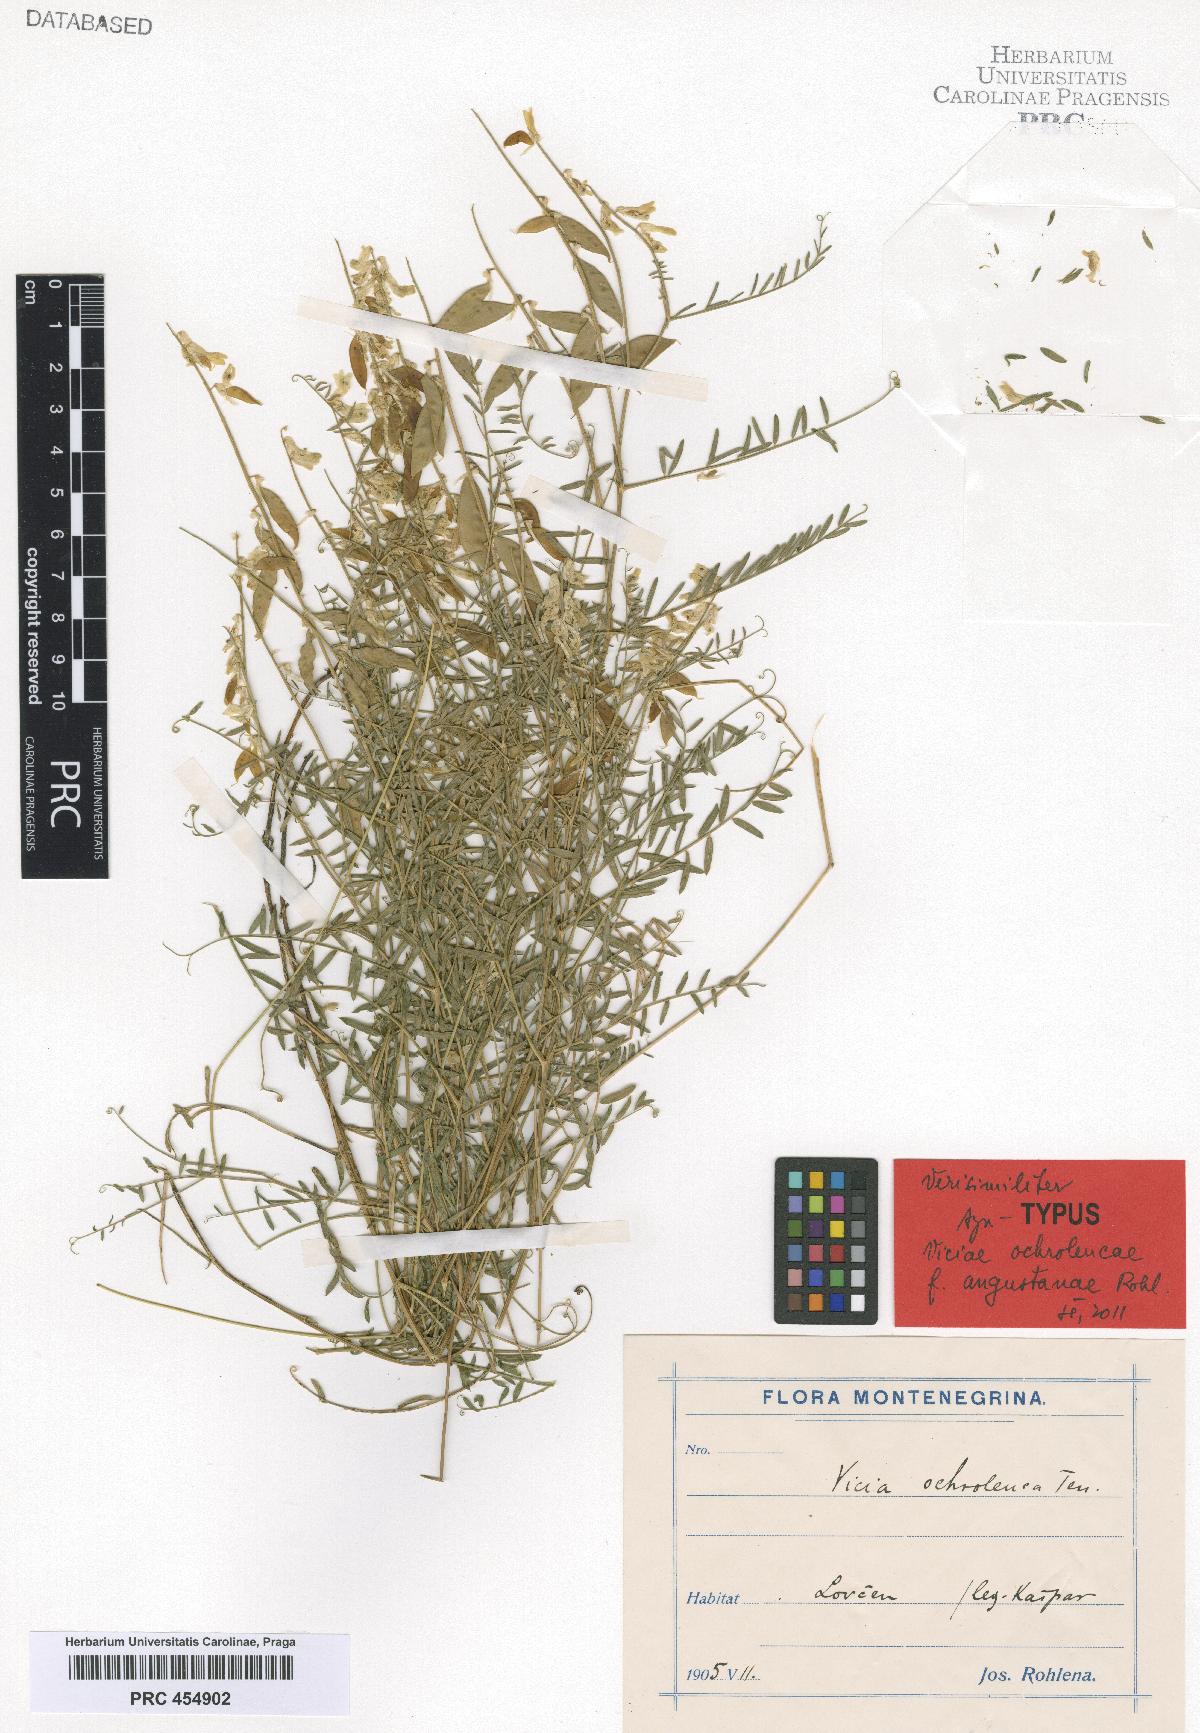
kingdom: Plantae
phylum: Tracheophyta
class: Magnoliopsida
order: Fabales
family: Fabaceae
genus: Vicia
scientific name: Vicia ochroleuca
